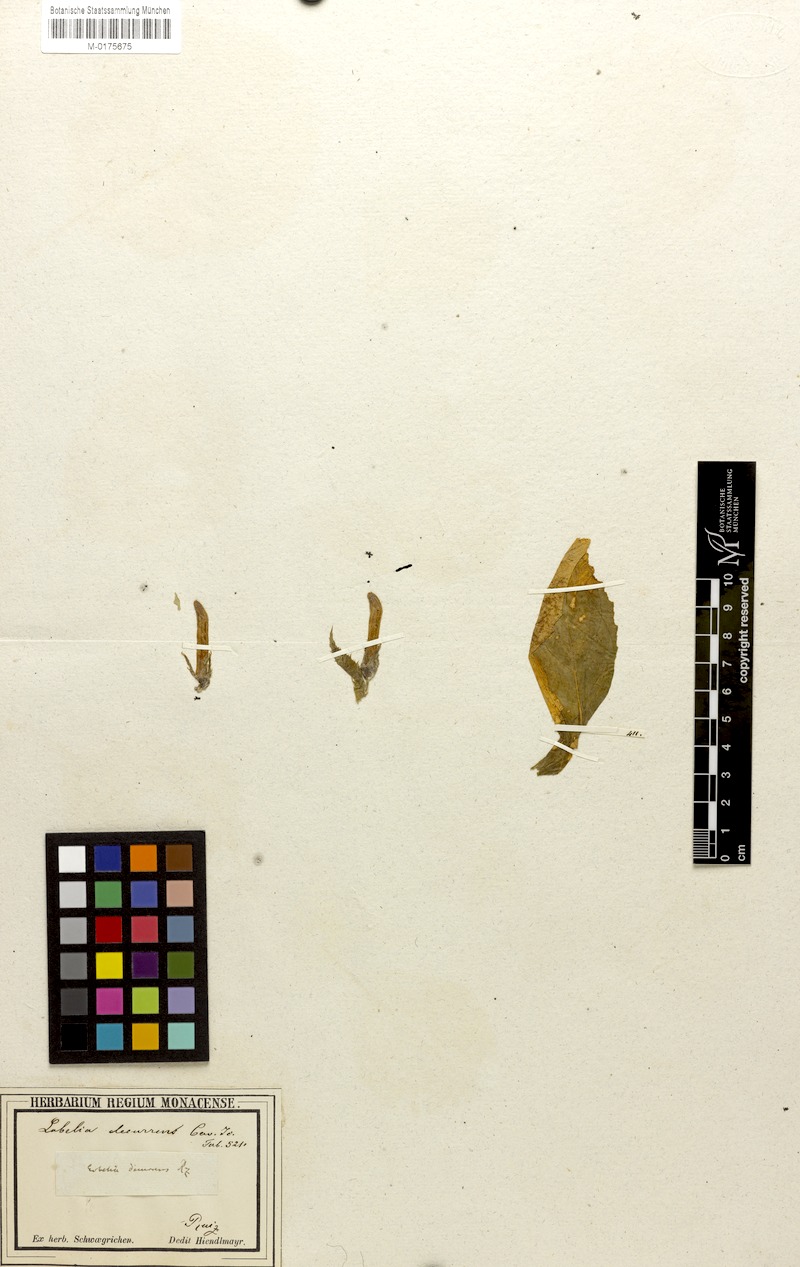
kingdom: Plantae
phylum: Tracheophyta
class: Magnoliopsida
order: Asterales
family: Campanulaceae
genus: Lobelia
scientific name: Lobelia decurrens
